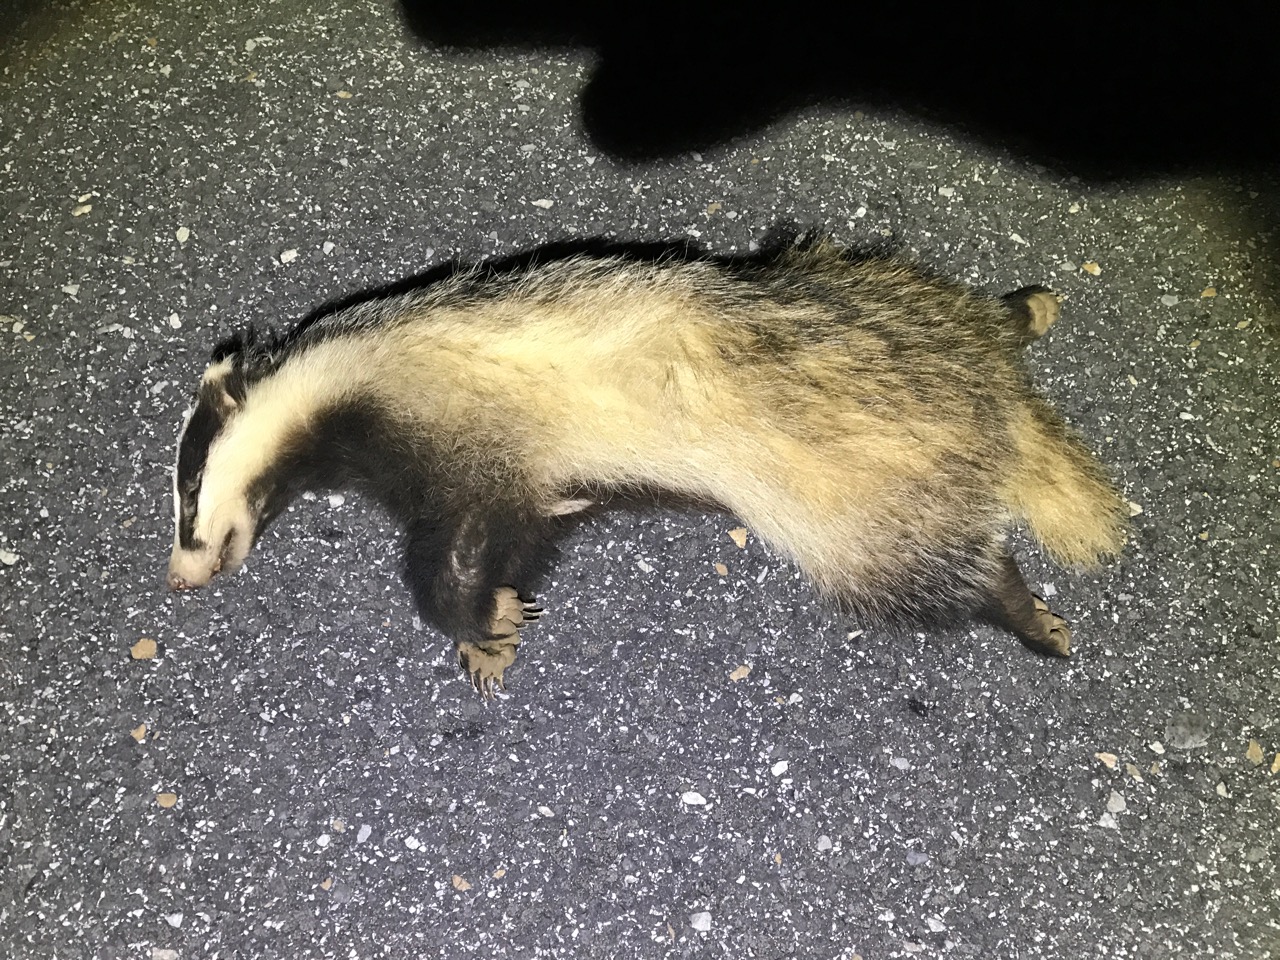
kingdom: Animalia
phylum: Chordata
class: Mammalia
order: Carnivora
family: Mustelidae
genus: Meles
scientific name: Meles meles
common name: Eurasian badger
